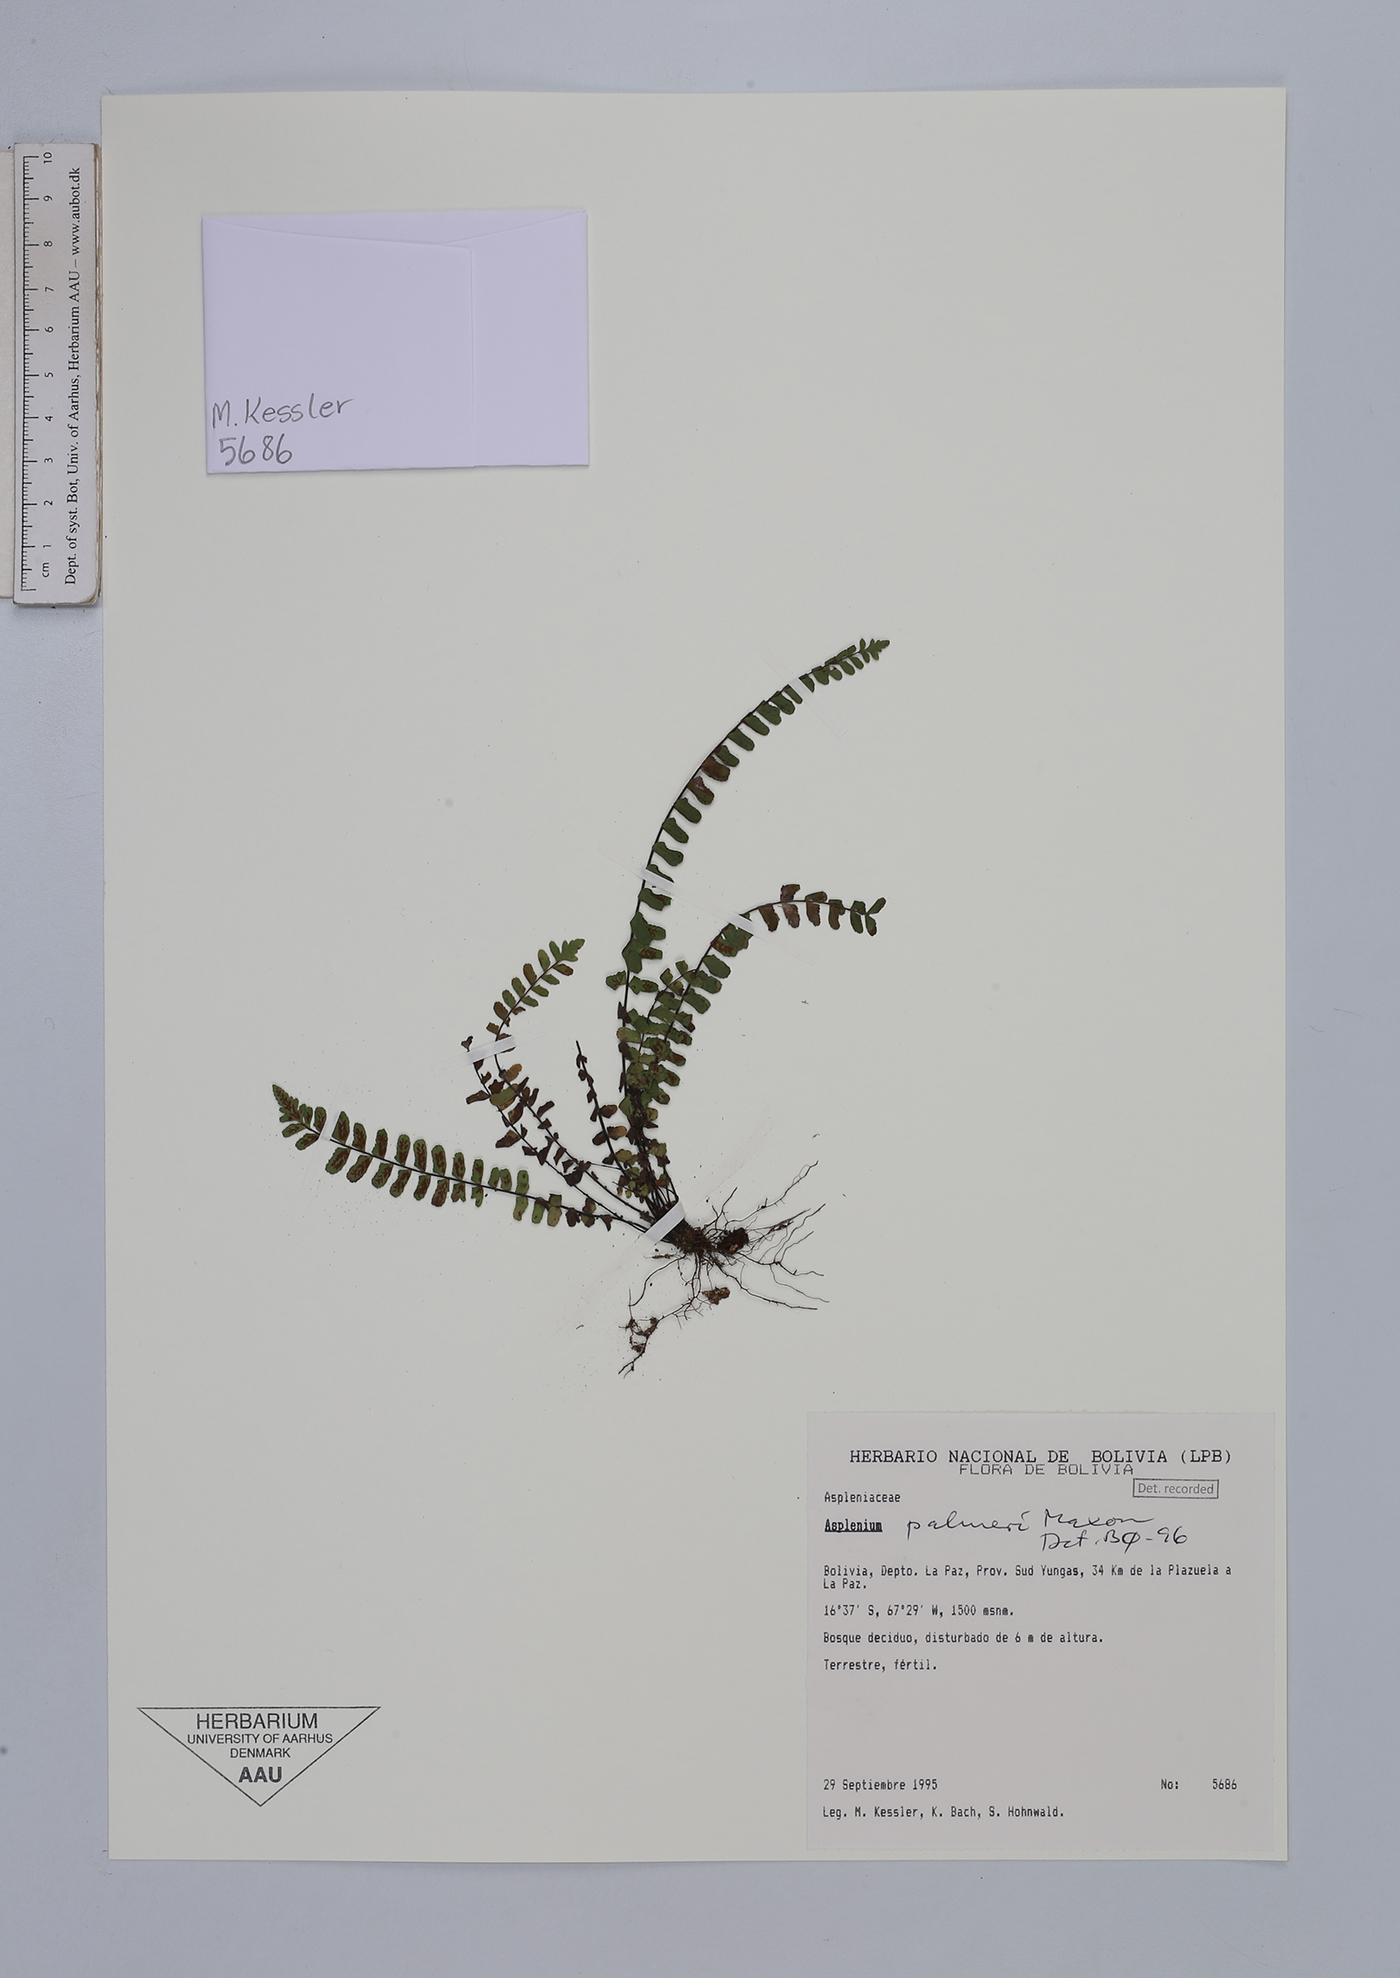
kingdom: Plantae
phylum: Tracheophyta
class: Polypodiopsida
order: Polypodiales
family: Aspleniaceae
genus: Asplenium
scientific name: Asplenium palmeri
